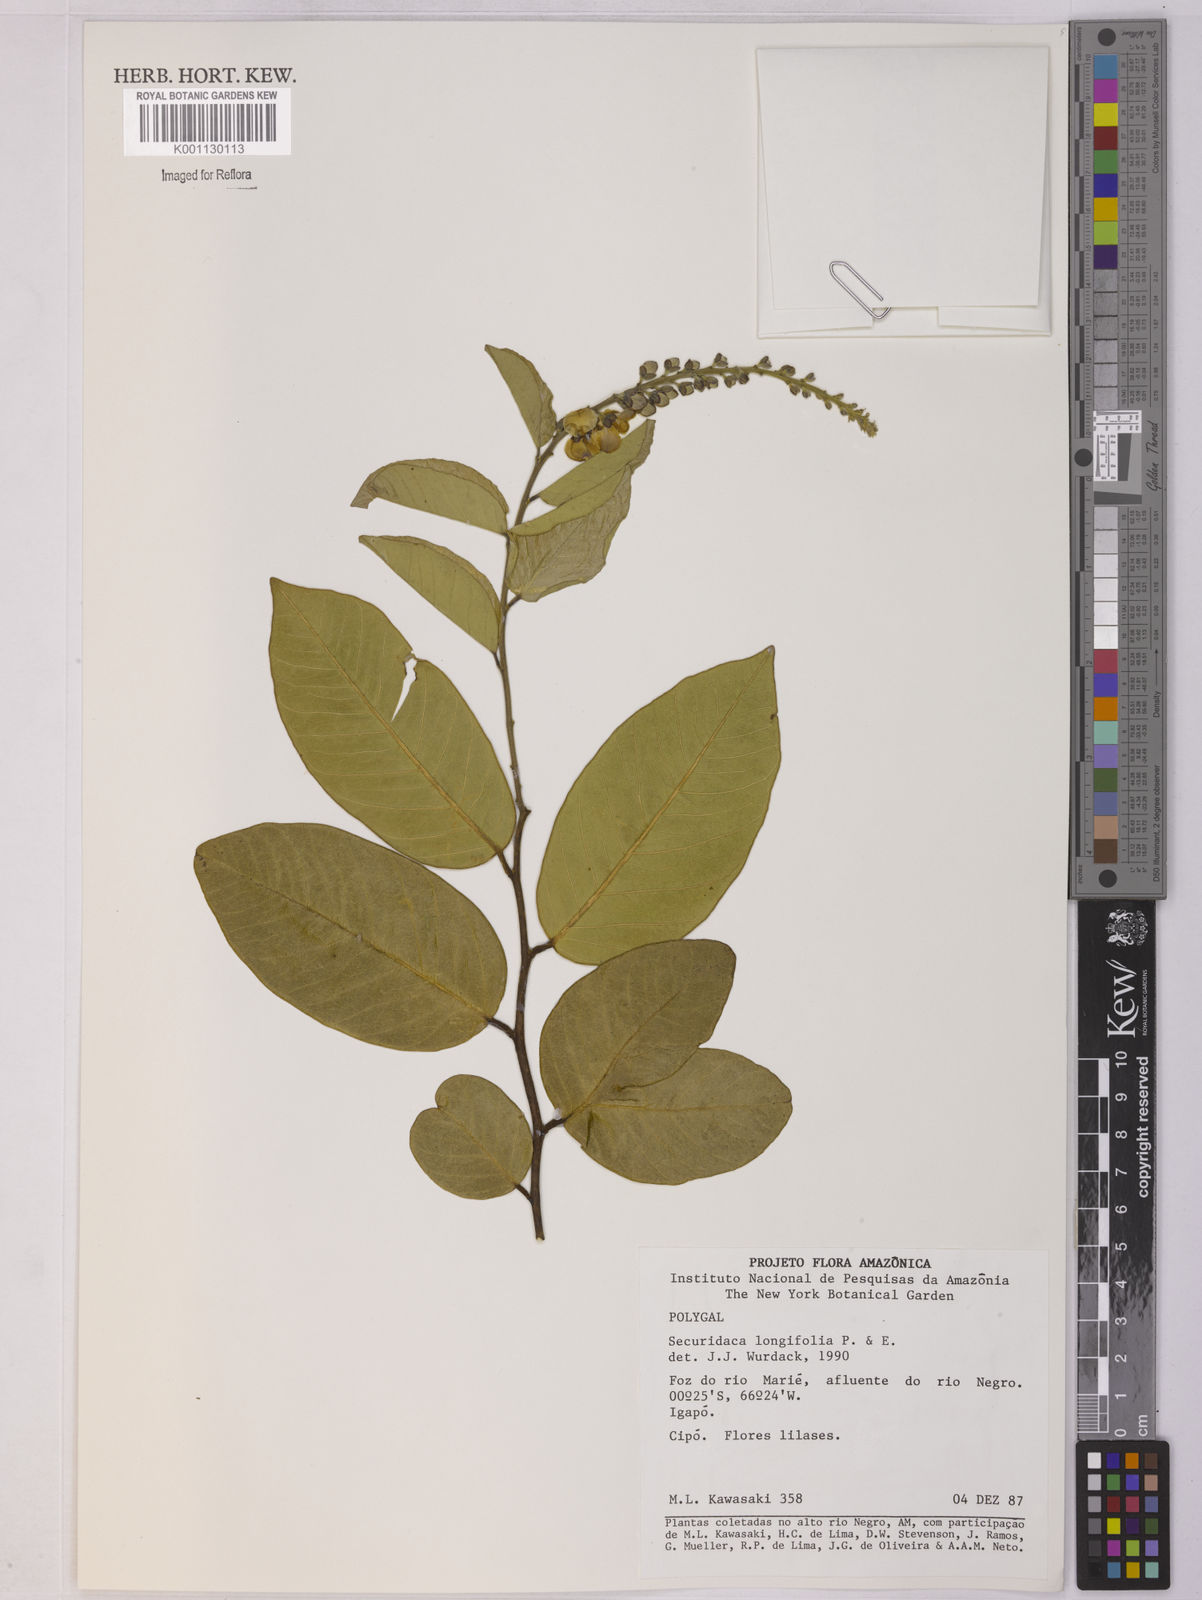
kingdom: Plantae
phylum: Tracheophyta
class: Magnoliopsida
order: Fabales
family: Polygalaceae
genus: Securidaca
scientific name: Securidaca longifolia
